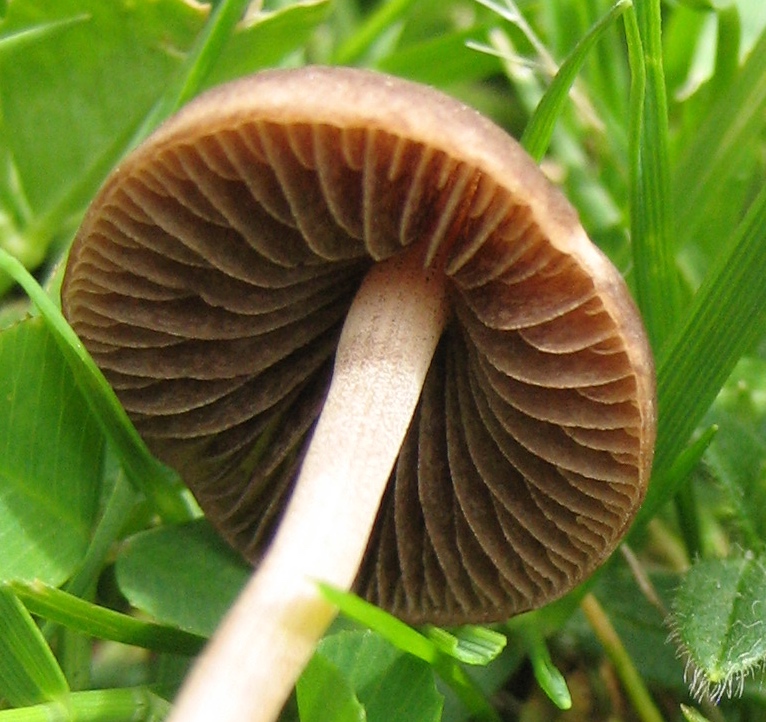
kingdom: Fungi
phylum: Basidiomycota
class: Agaricomycetes
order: Agaricales
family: Bolbitiaceae
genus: Panaeolina
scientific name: Panaeolina foenisecii
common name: høslætsvamp
